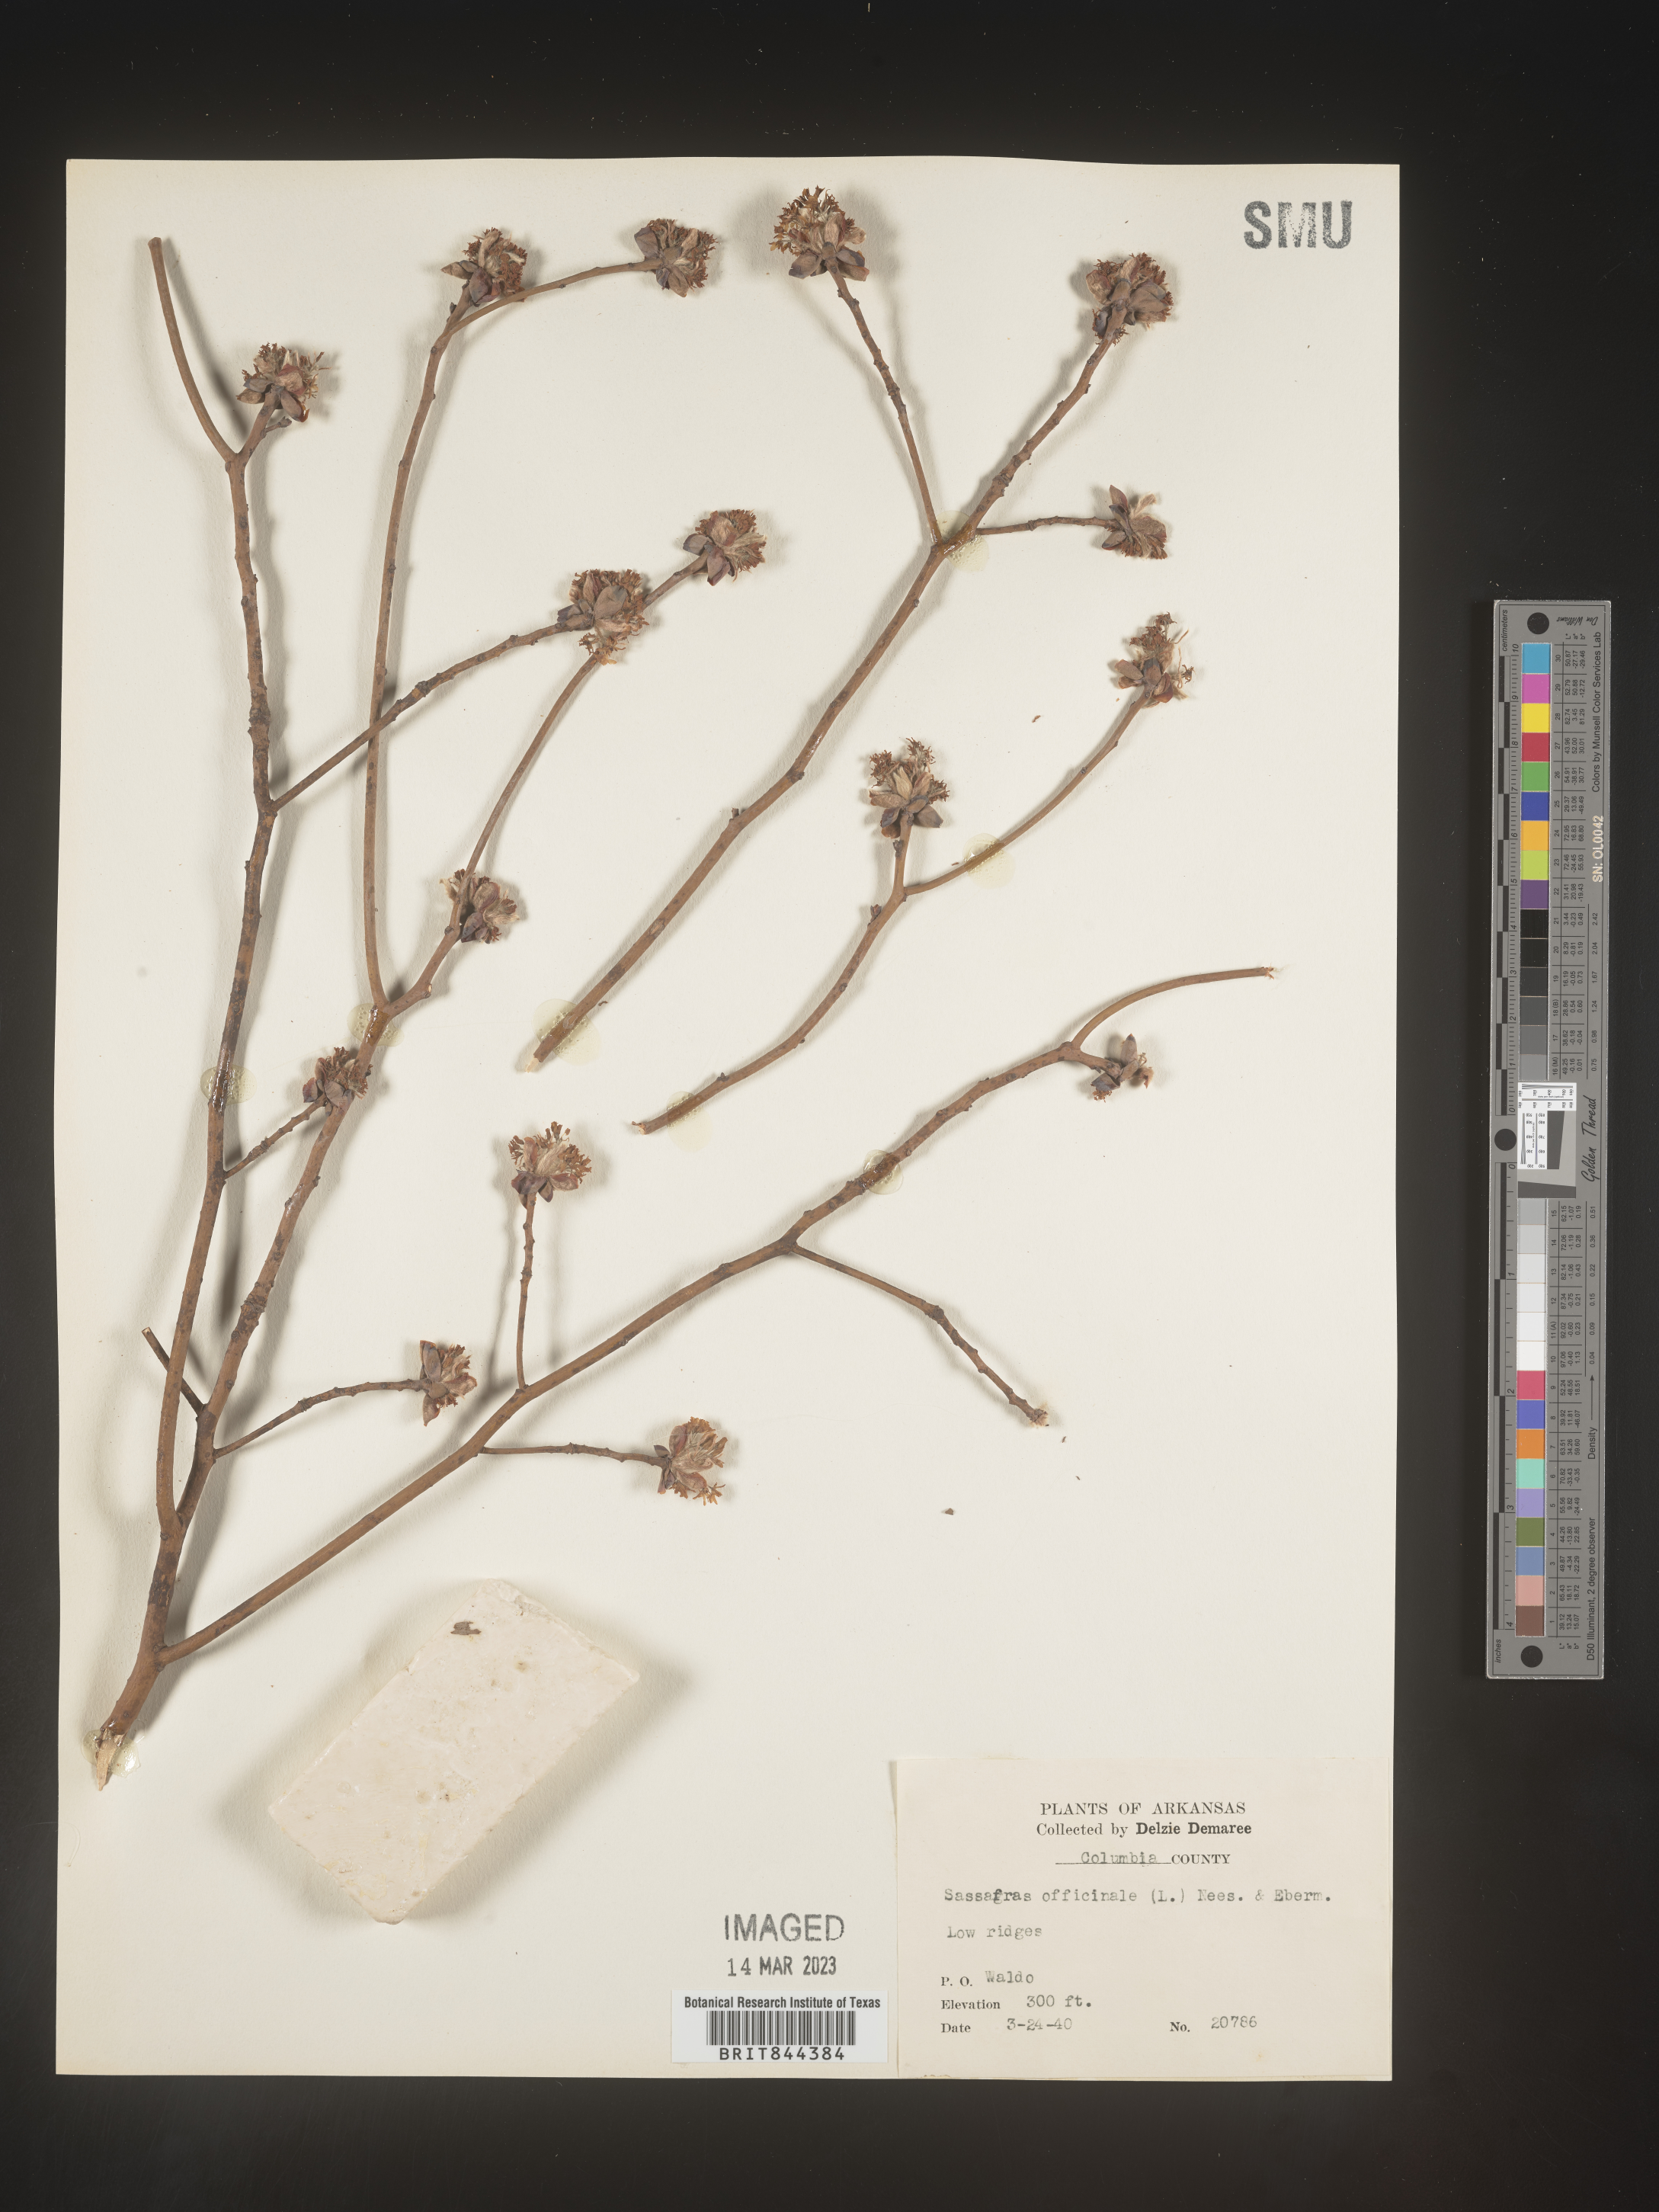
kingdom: Plantae
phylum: Tracheophyta
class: Magnoliopsida
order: Laurales
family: Lauraceae
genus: Sassafras
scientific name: Sassafras
